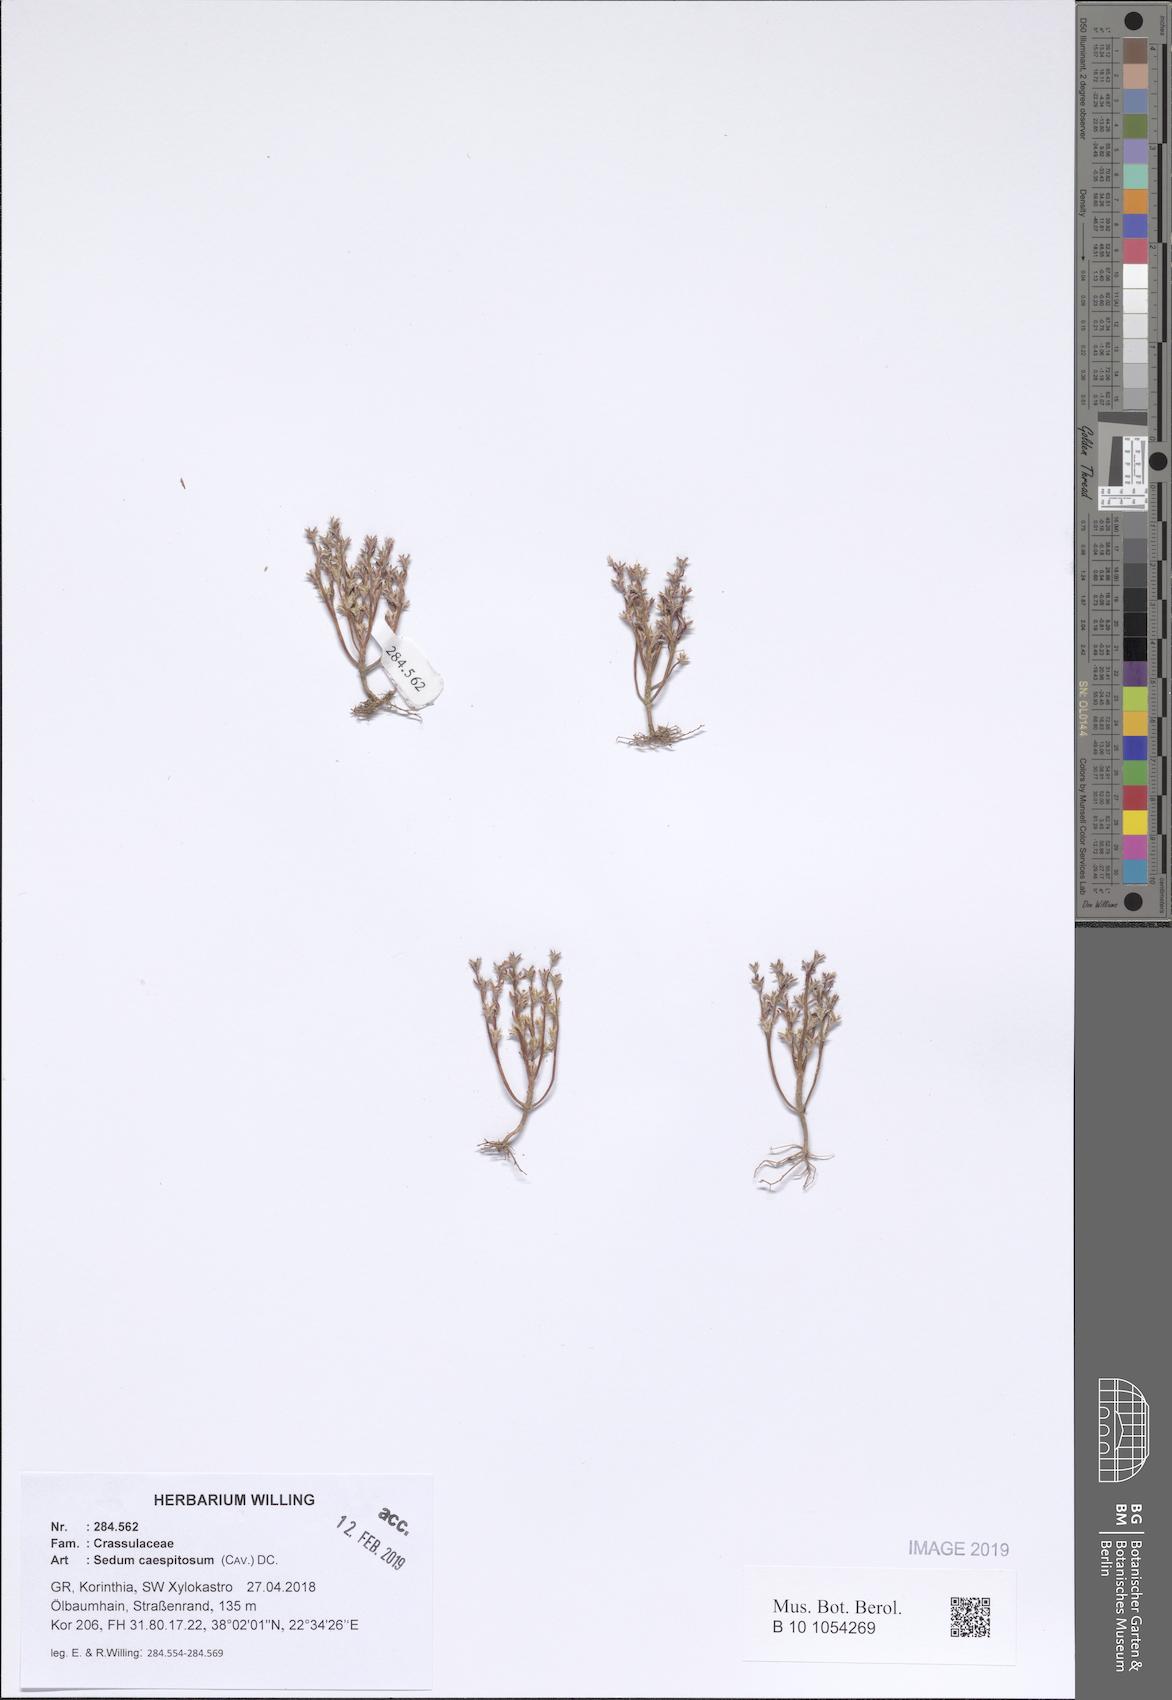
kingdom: Plantae
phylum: Tracheophyta
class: Magnoliopsida
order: Saxifragales
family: Crassulaceae
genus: Sedum
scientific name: Sedum cespitosum
